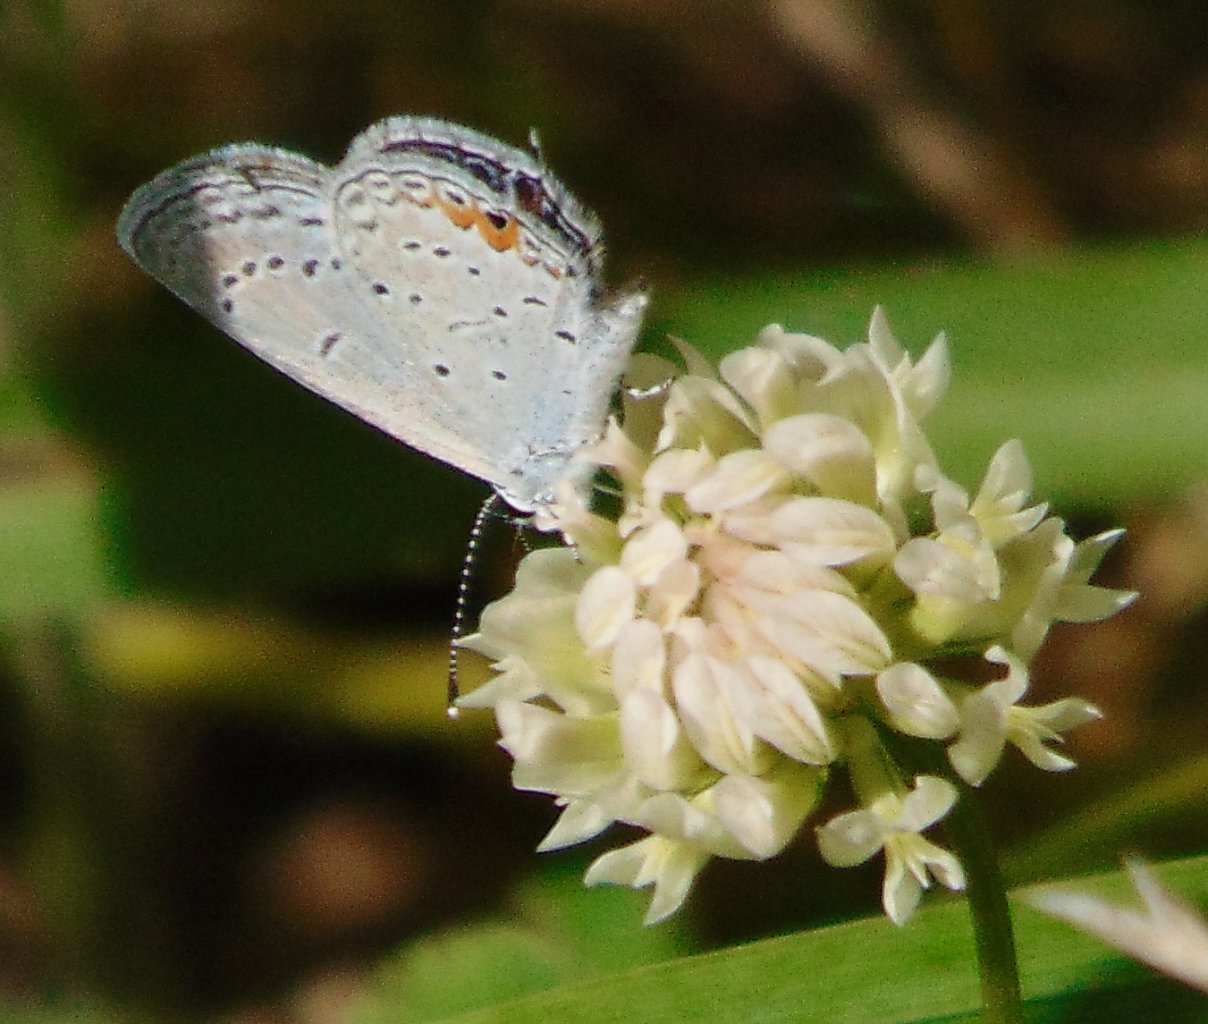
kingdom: Animalia
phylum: Arthropoda
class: Insecta
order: Lepidoptera
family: Lycaenidae
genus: Elkalyce
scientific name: Elkalyce comyntas
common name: Eastern Tailed-Blue
